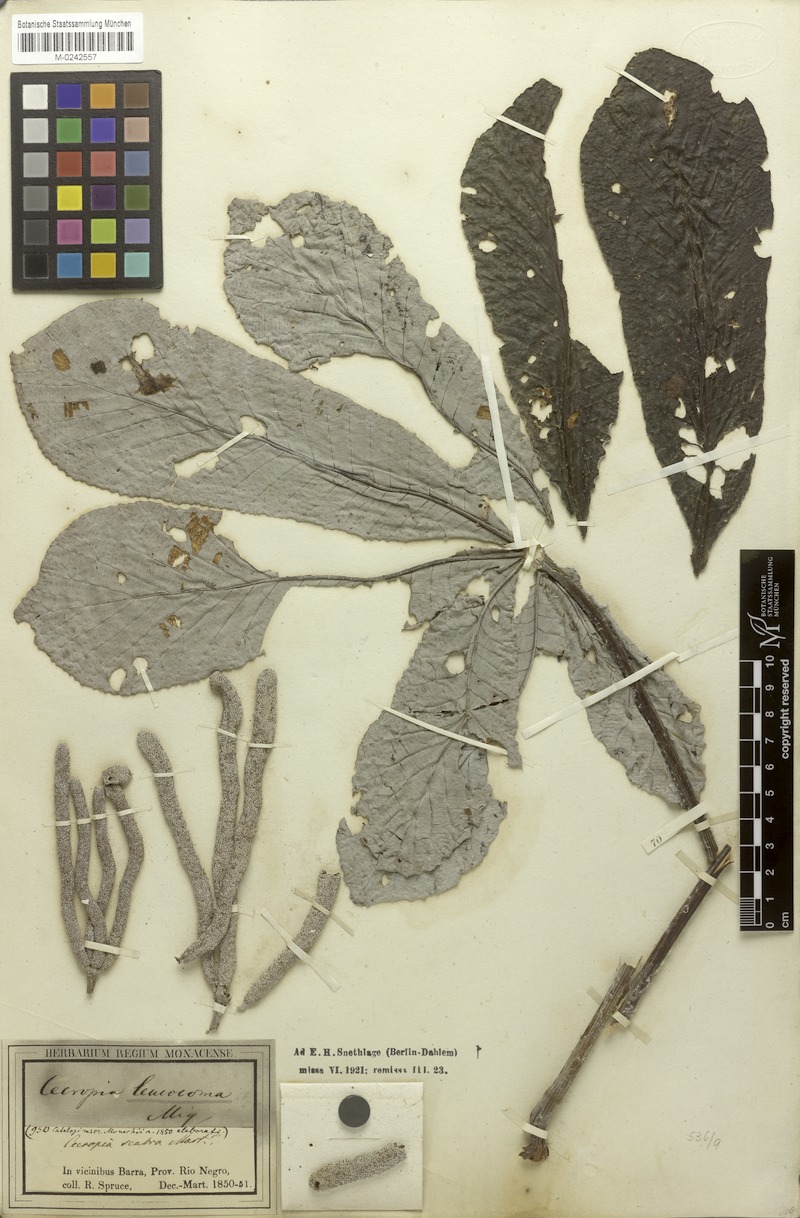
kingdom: Plantae
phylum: Tracheophyta
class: Magnoliopsida
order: Rosales
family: Urticaceae
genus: Cecropia
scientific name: Cecropia concolor
